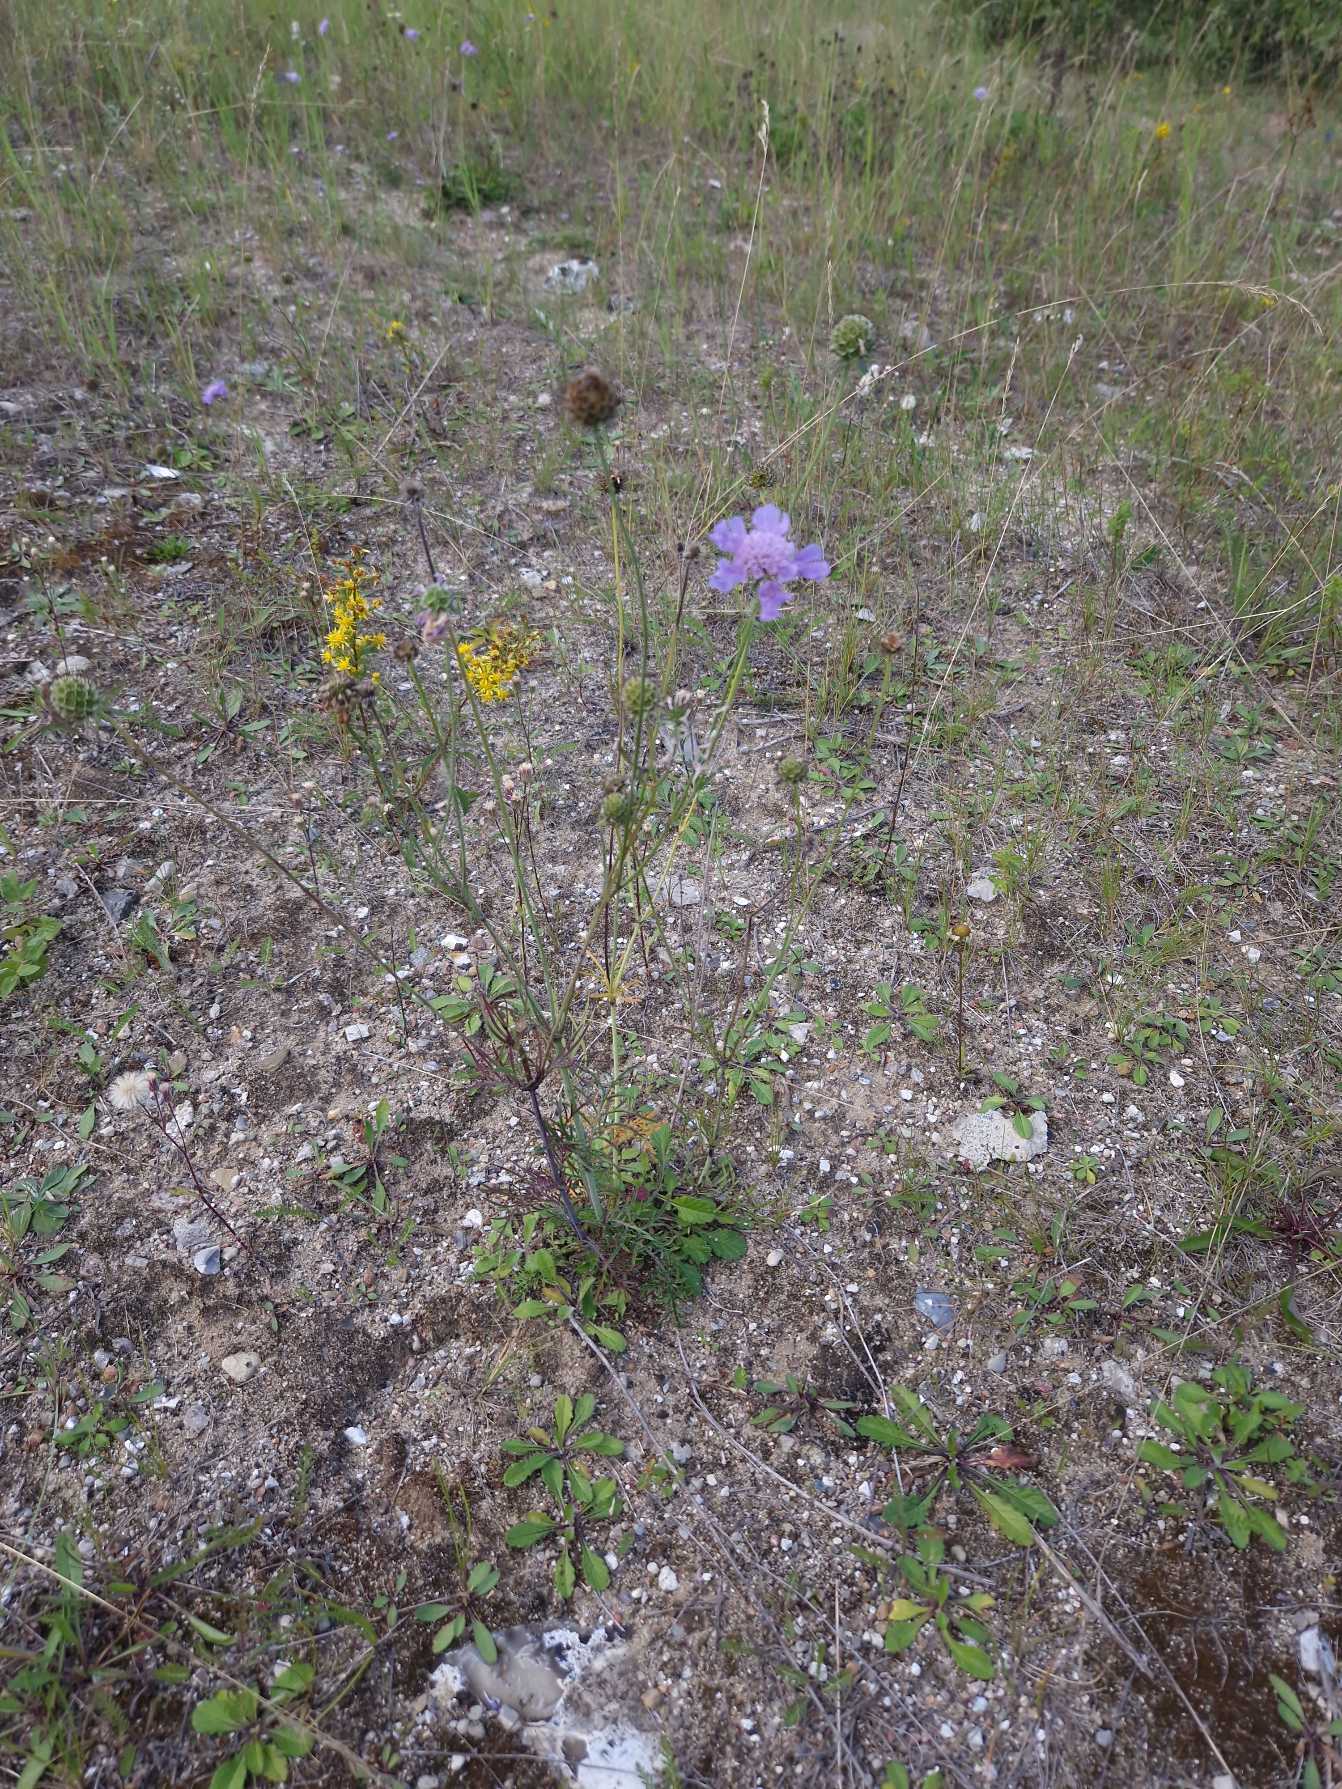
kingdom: Plantae
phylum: Tracheophyta
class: Magnoliopsida
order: Dipsacales
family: Caprifoliaceae
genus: Scabiosa
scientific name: Scabiosa columbaria
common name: Due-skabiose
